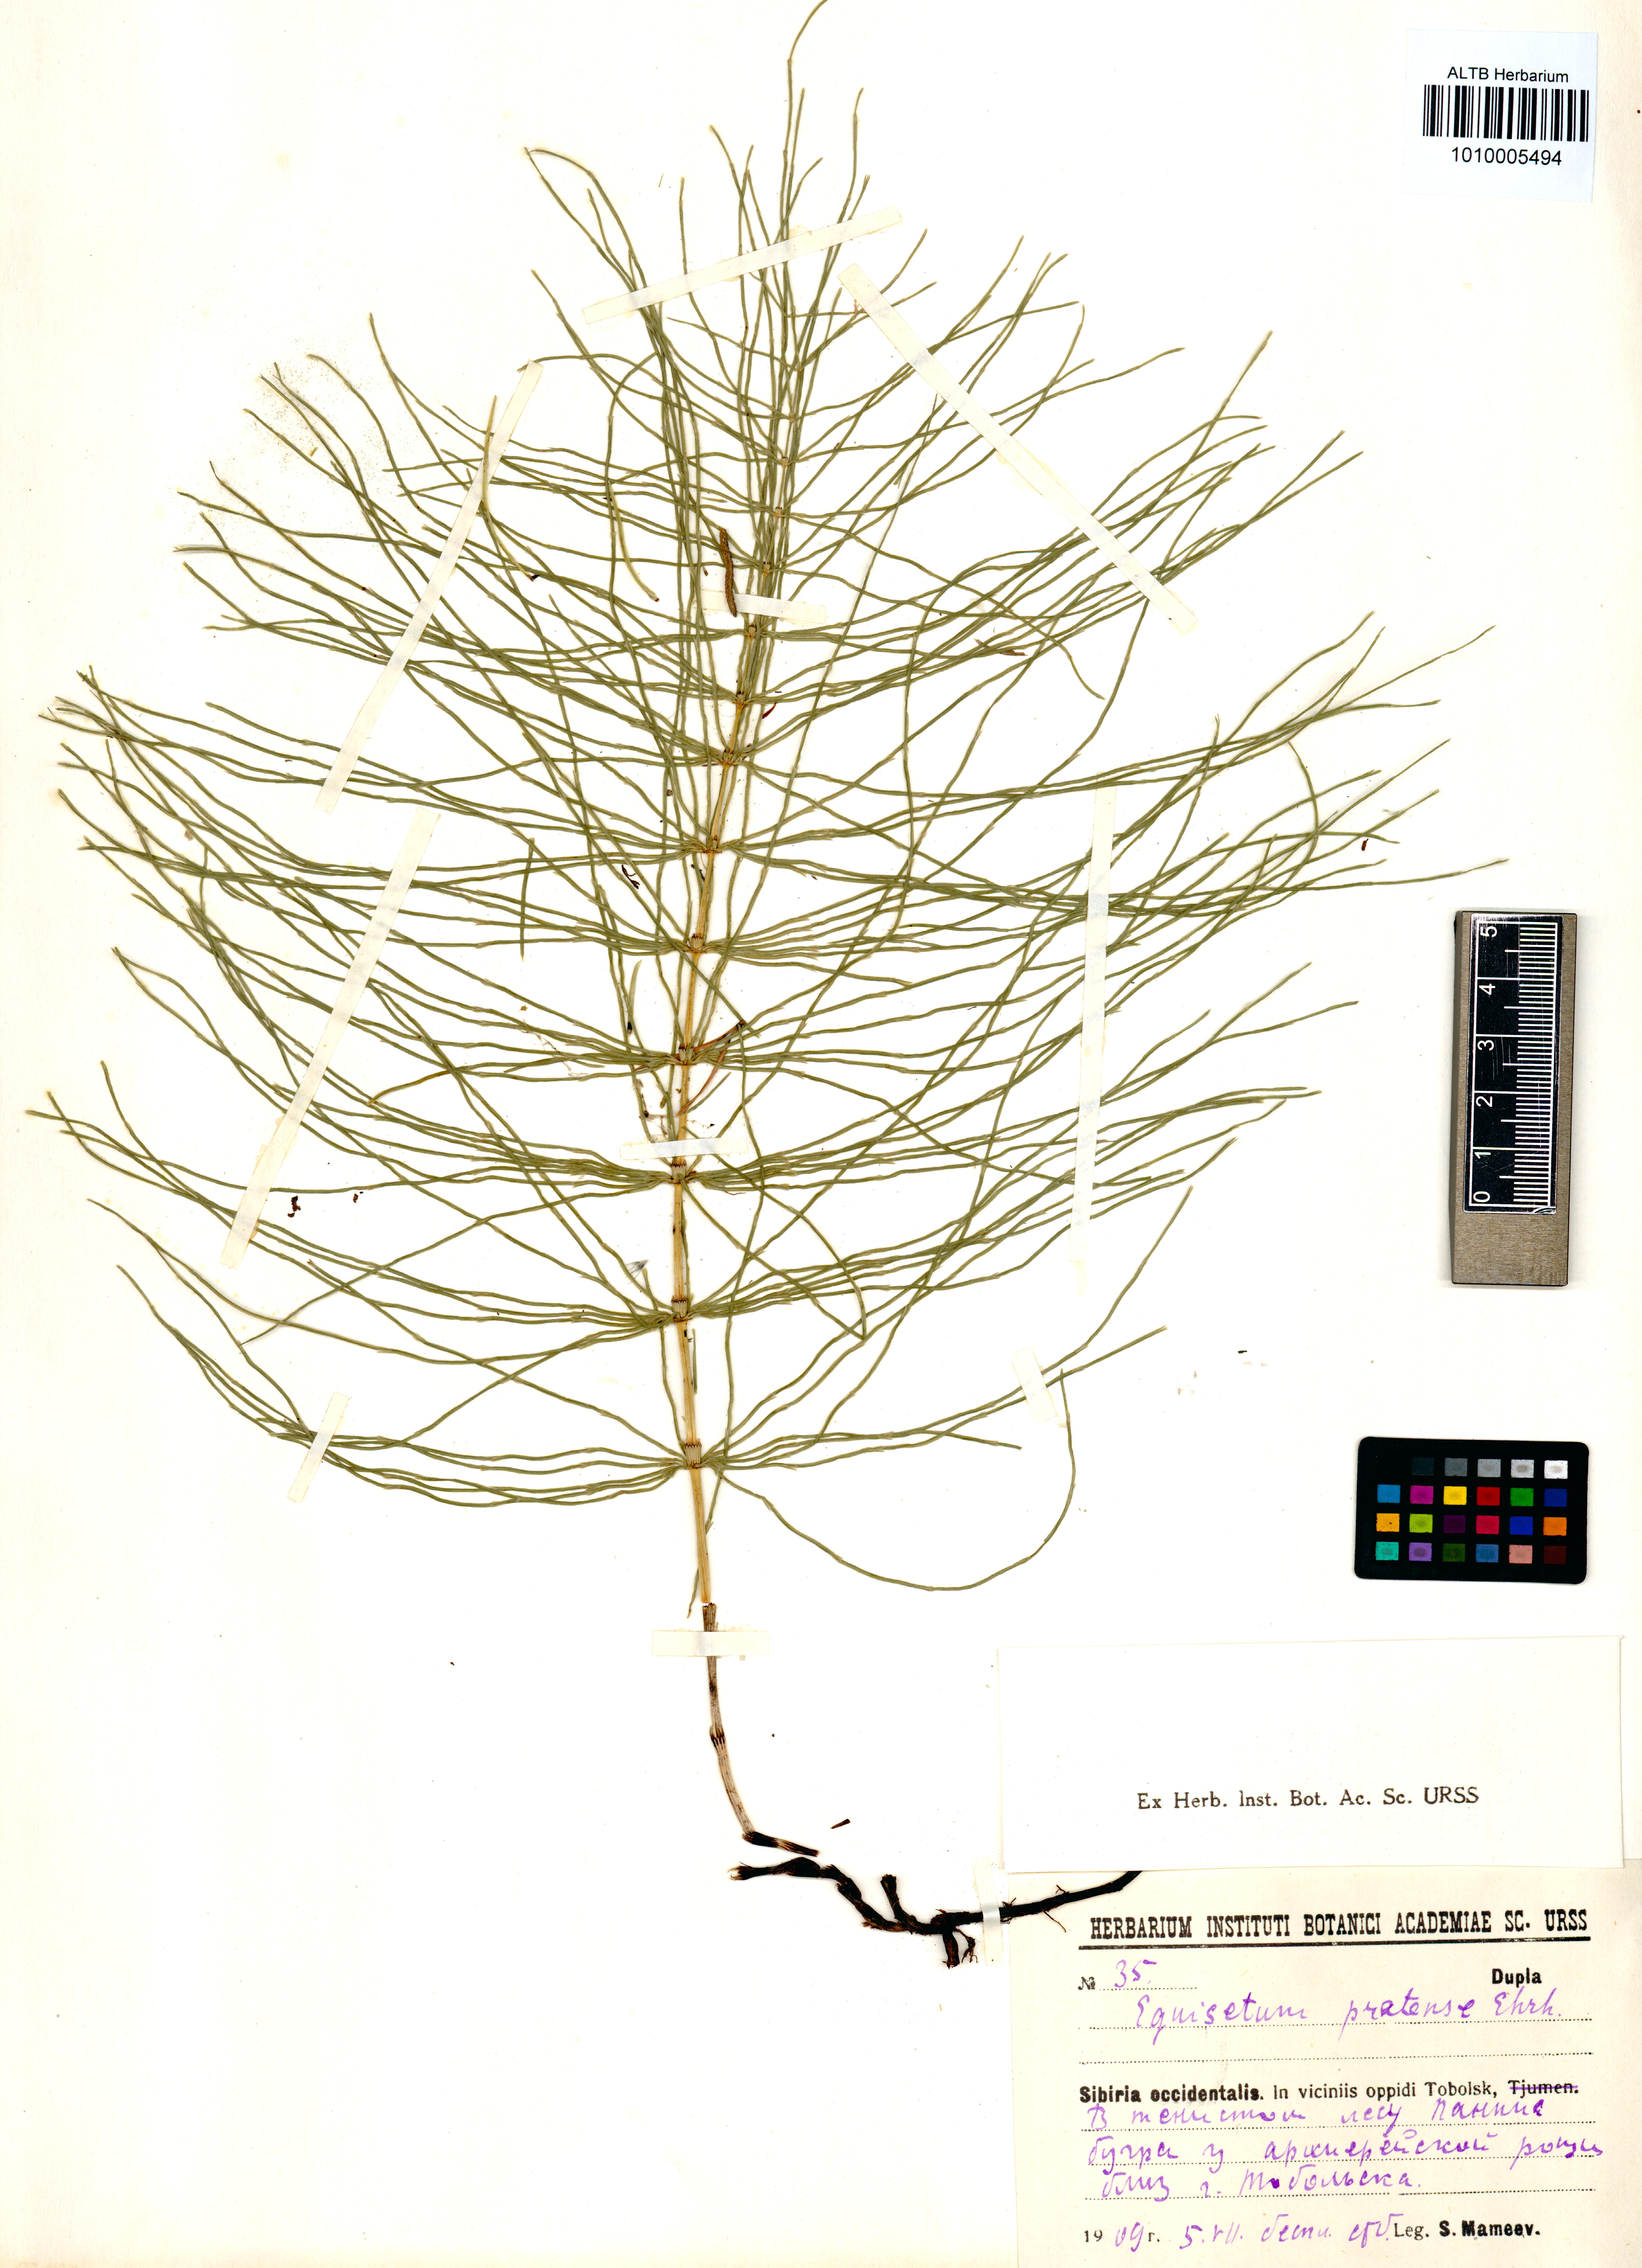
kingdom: Plantae
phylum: Tracheophyta
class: Polypodiopsida
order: Equisetales
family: Equisetaceae
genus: Equisetum
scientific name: Equisetum pratense
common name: Meadow horsetail
